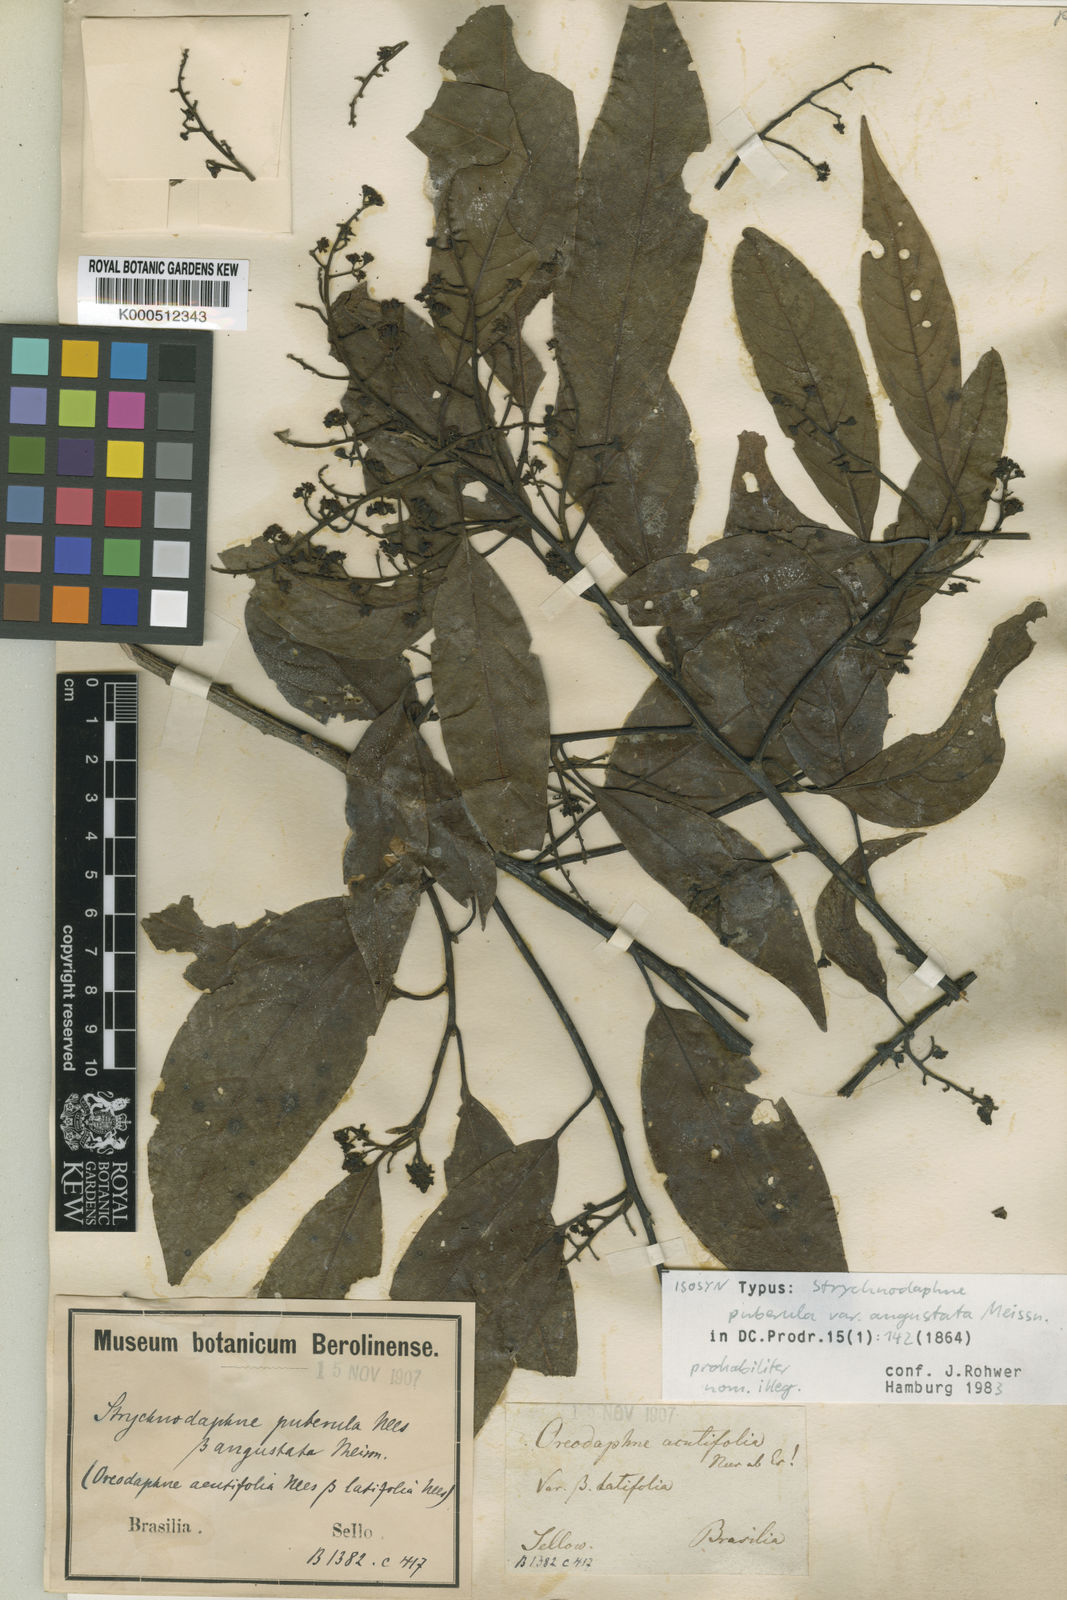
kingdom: Plantae
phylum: Tracheophyta
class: Magnoliopsida
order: Laurales
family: Lauraceae
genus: Ocotea
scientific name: Ocotea puberula
